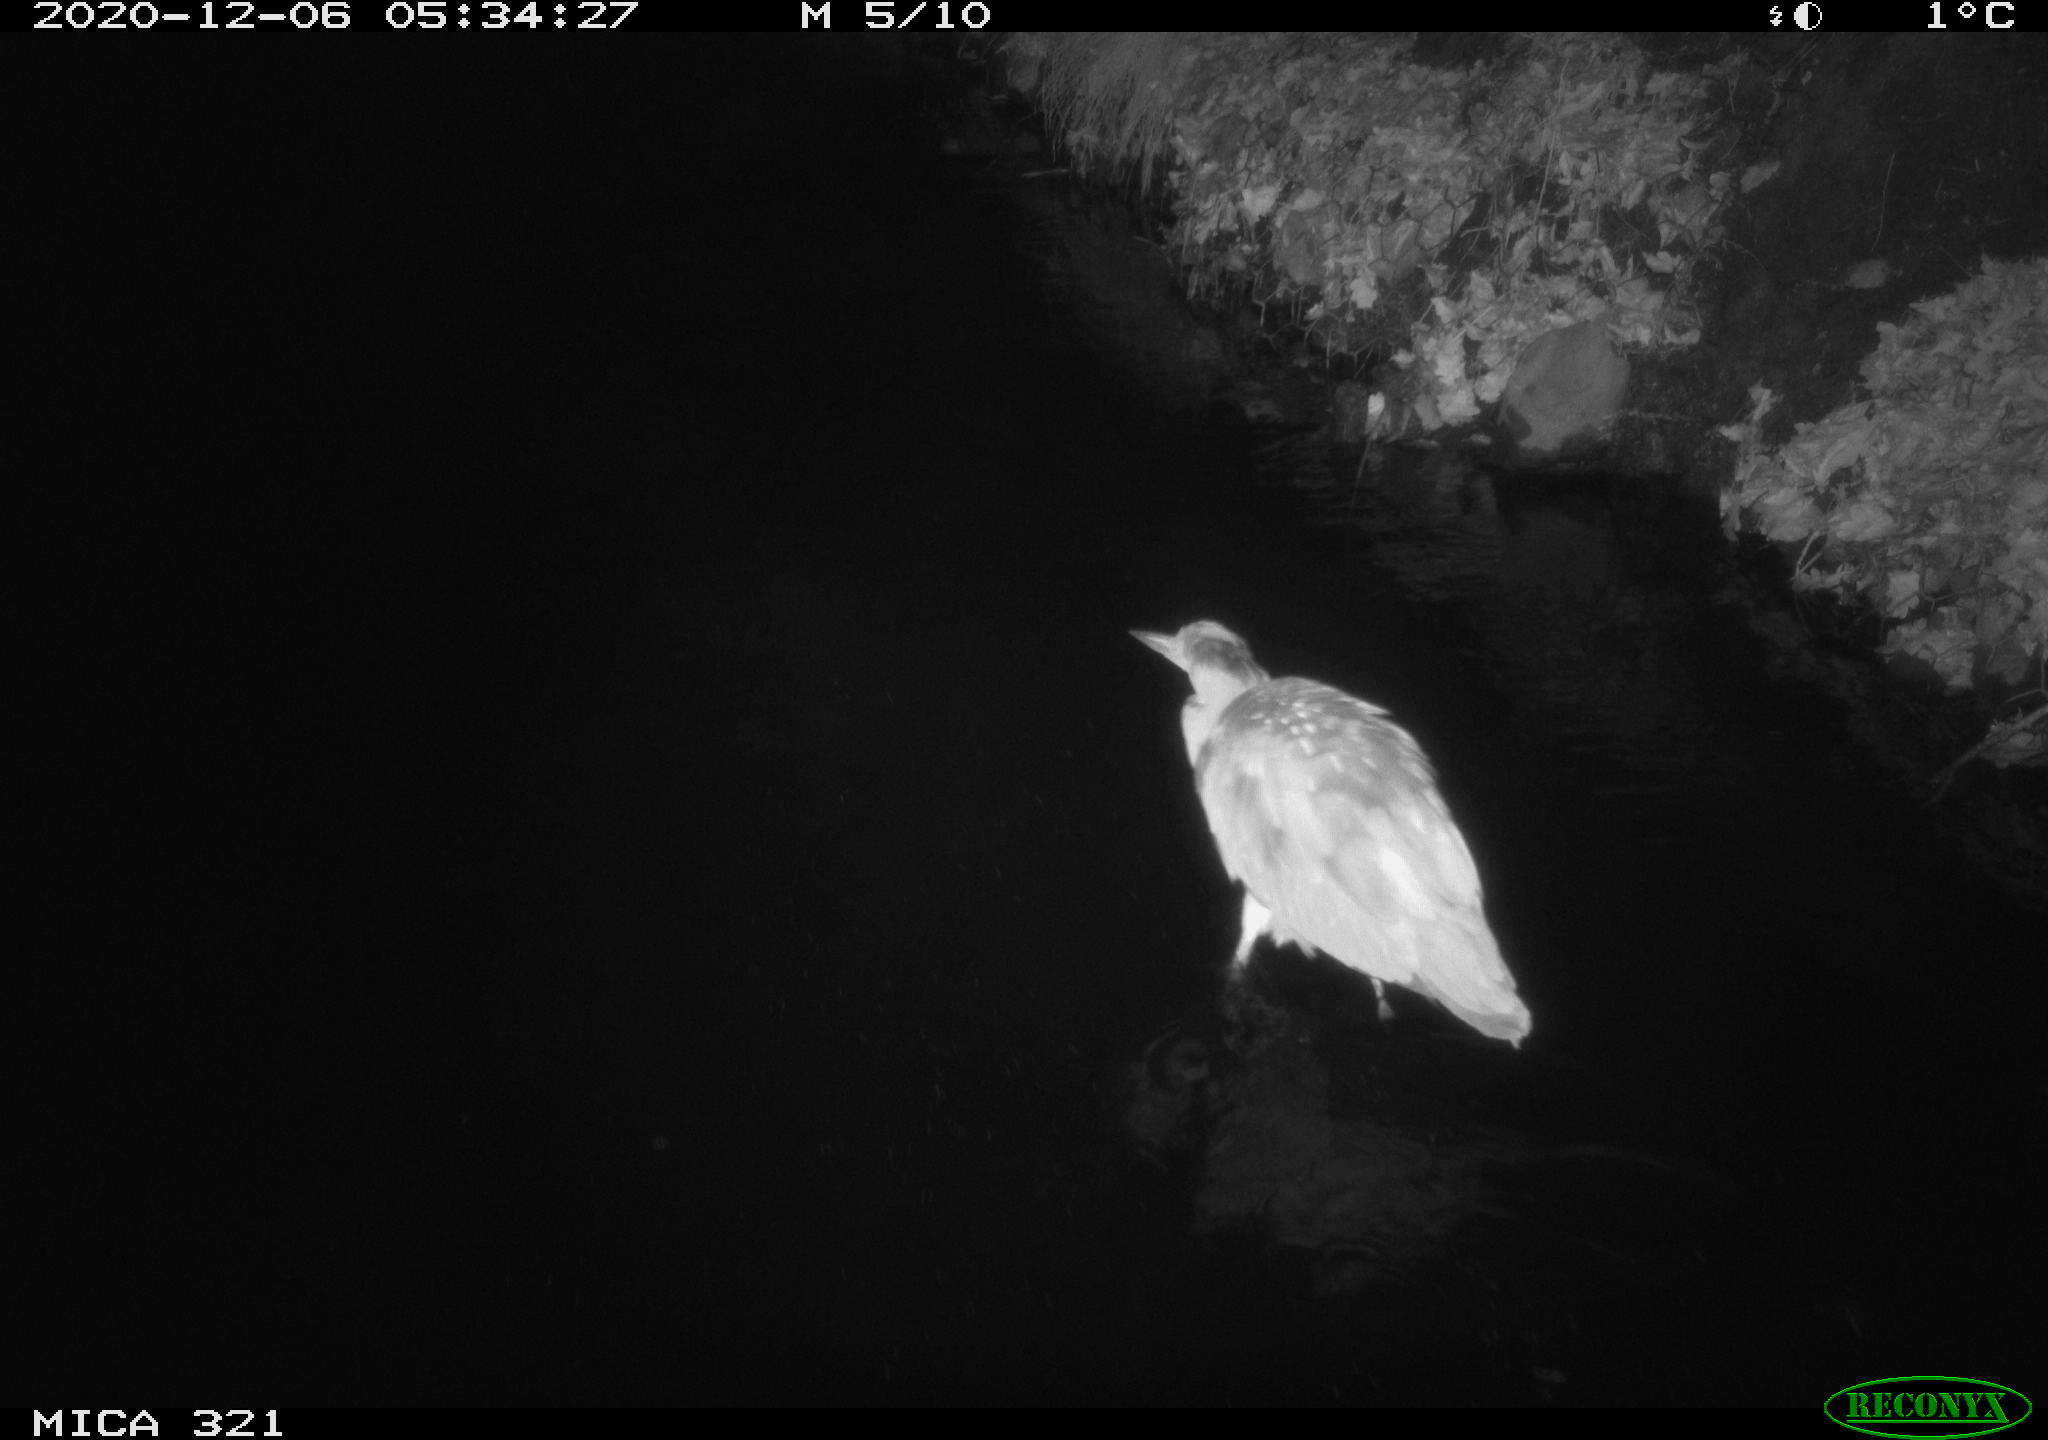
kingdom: Animalia
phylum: Chordata
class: Aves
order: Pelecaniformes
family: Ardeidae
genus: Ardea
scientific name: Ardea cinerea
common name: Grey heron
